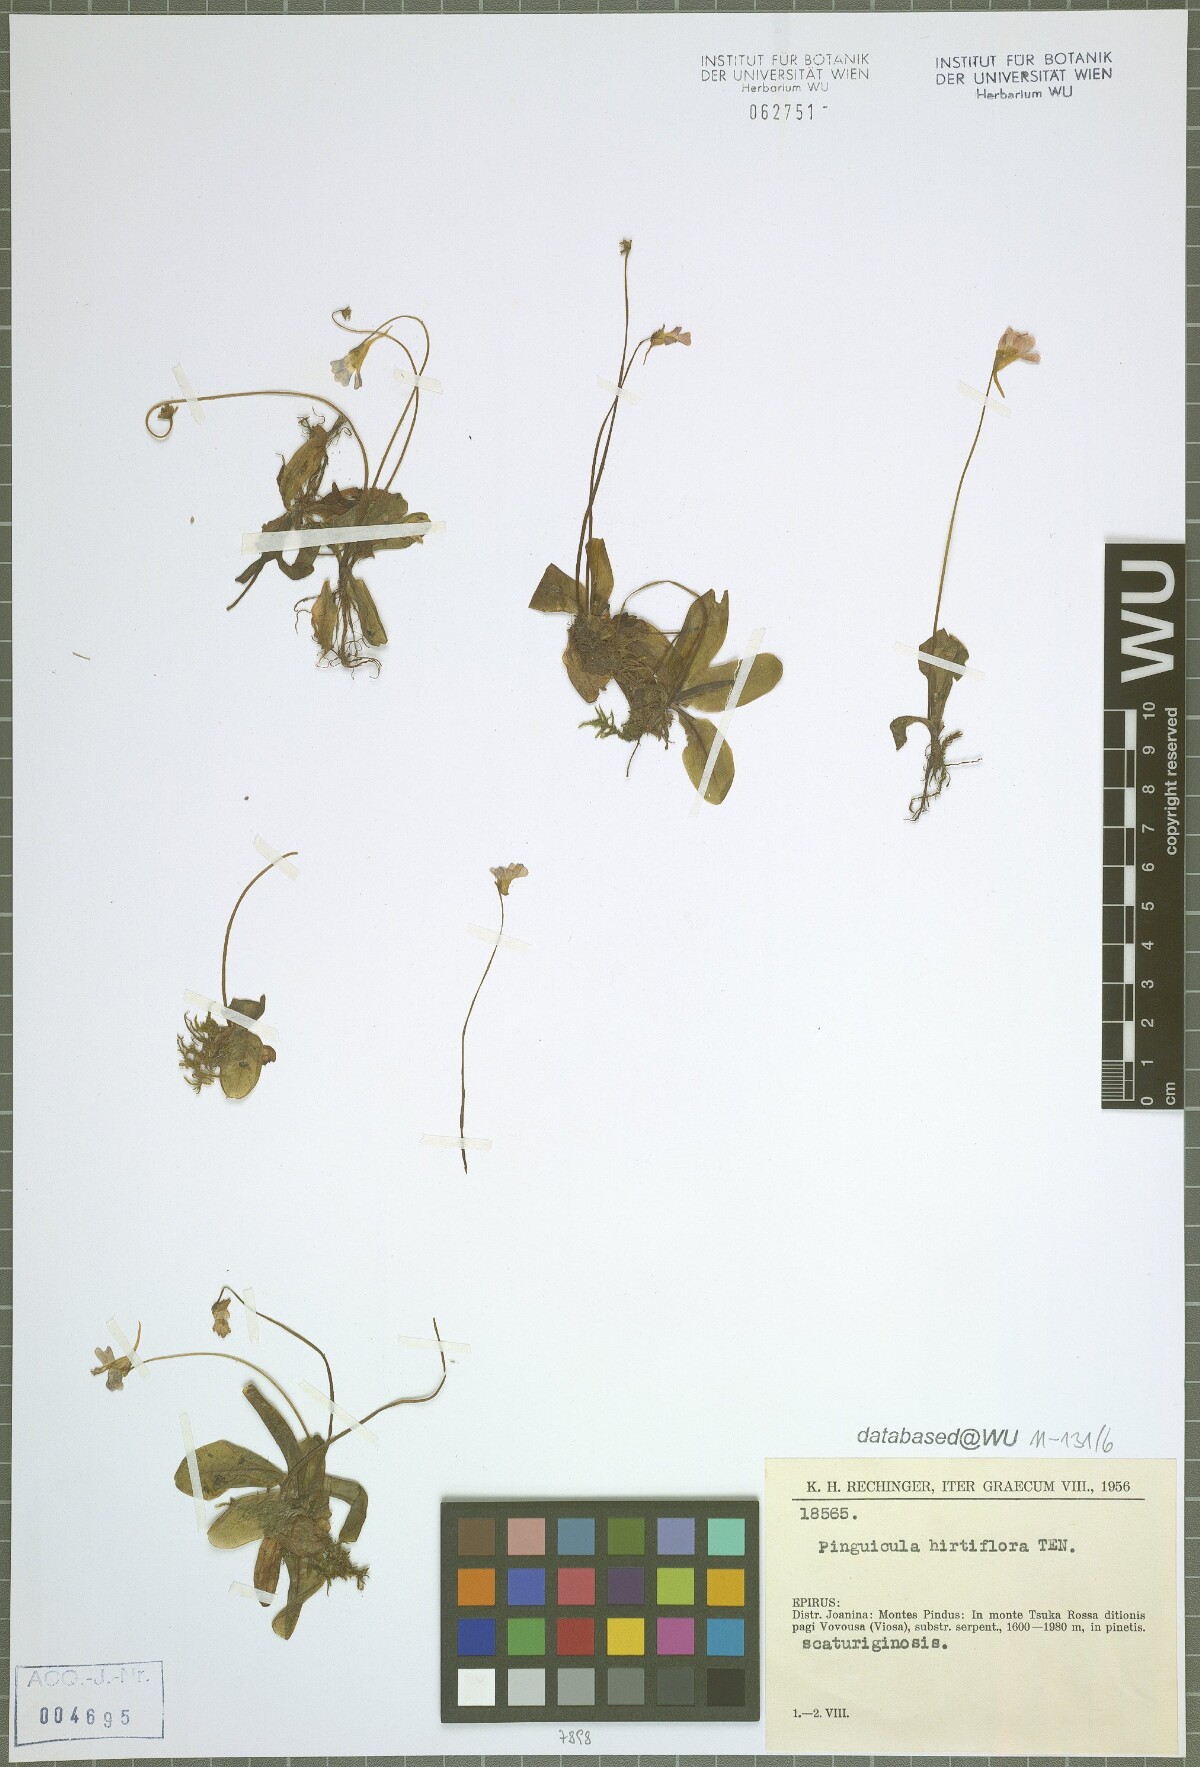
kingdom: Plantae
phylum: Tracheophyta
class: Magnoliopsida
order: Lamiales
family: Lentibulariaceae
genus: Pinguicula
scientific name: Pinguicula crystallina
